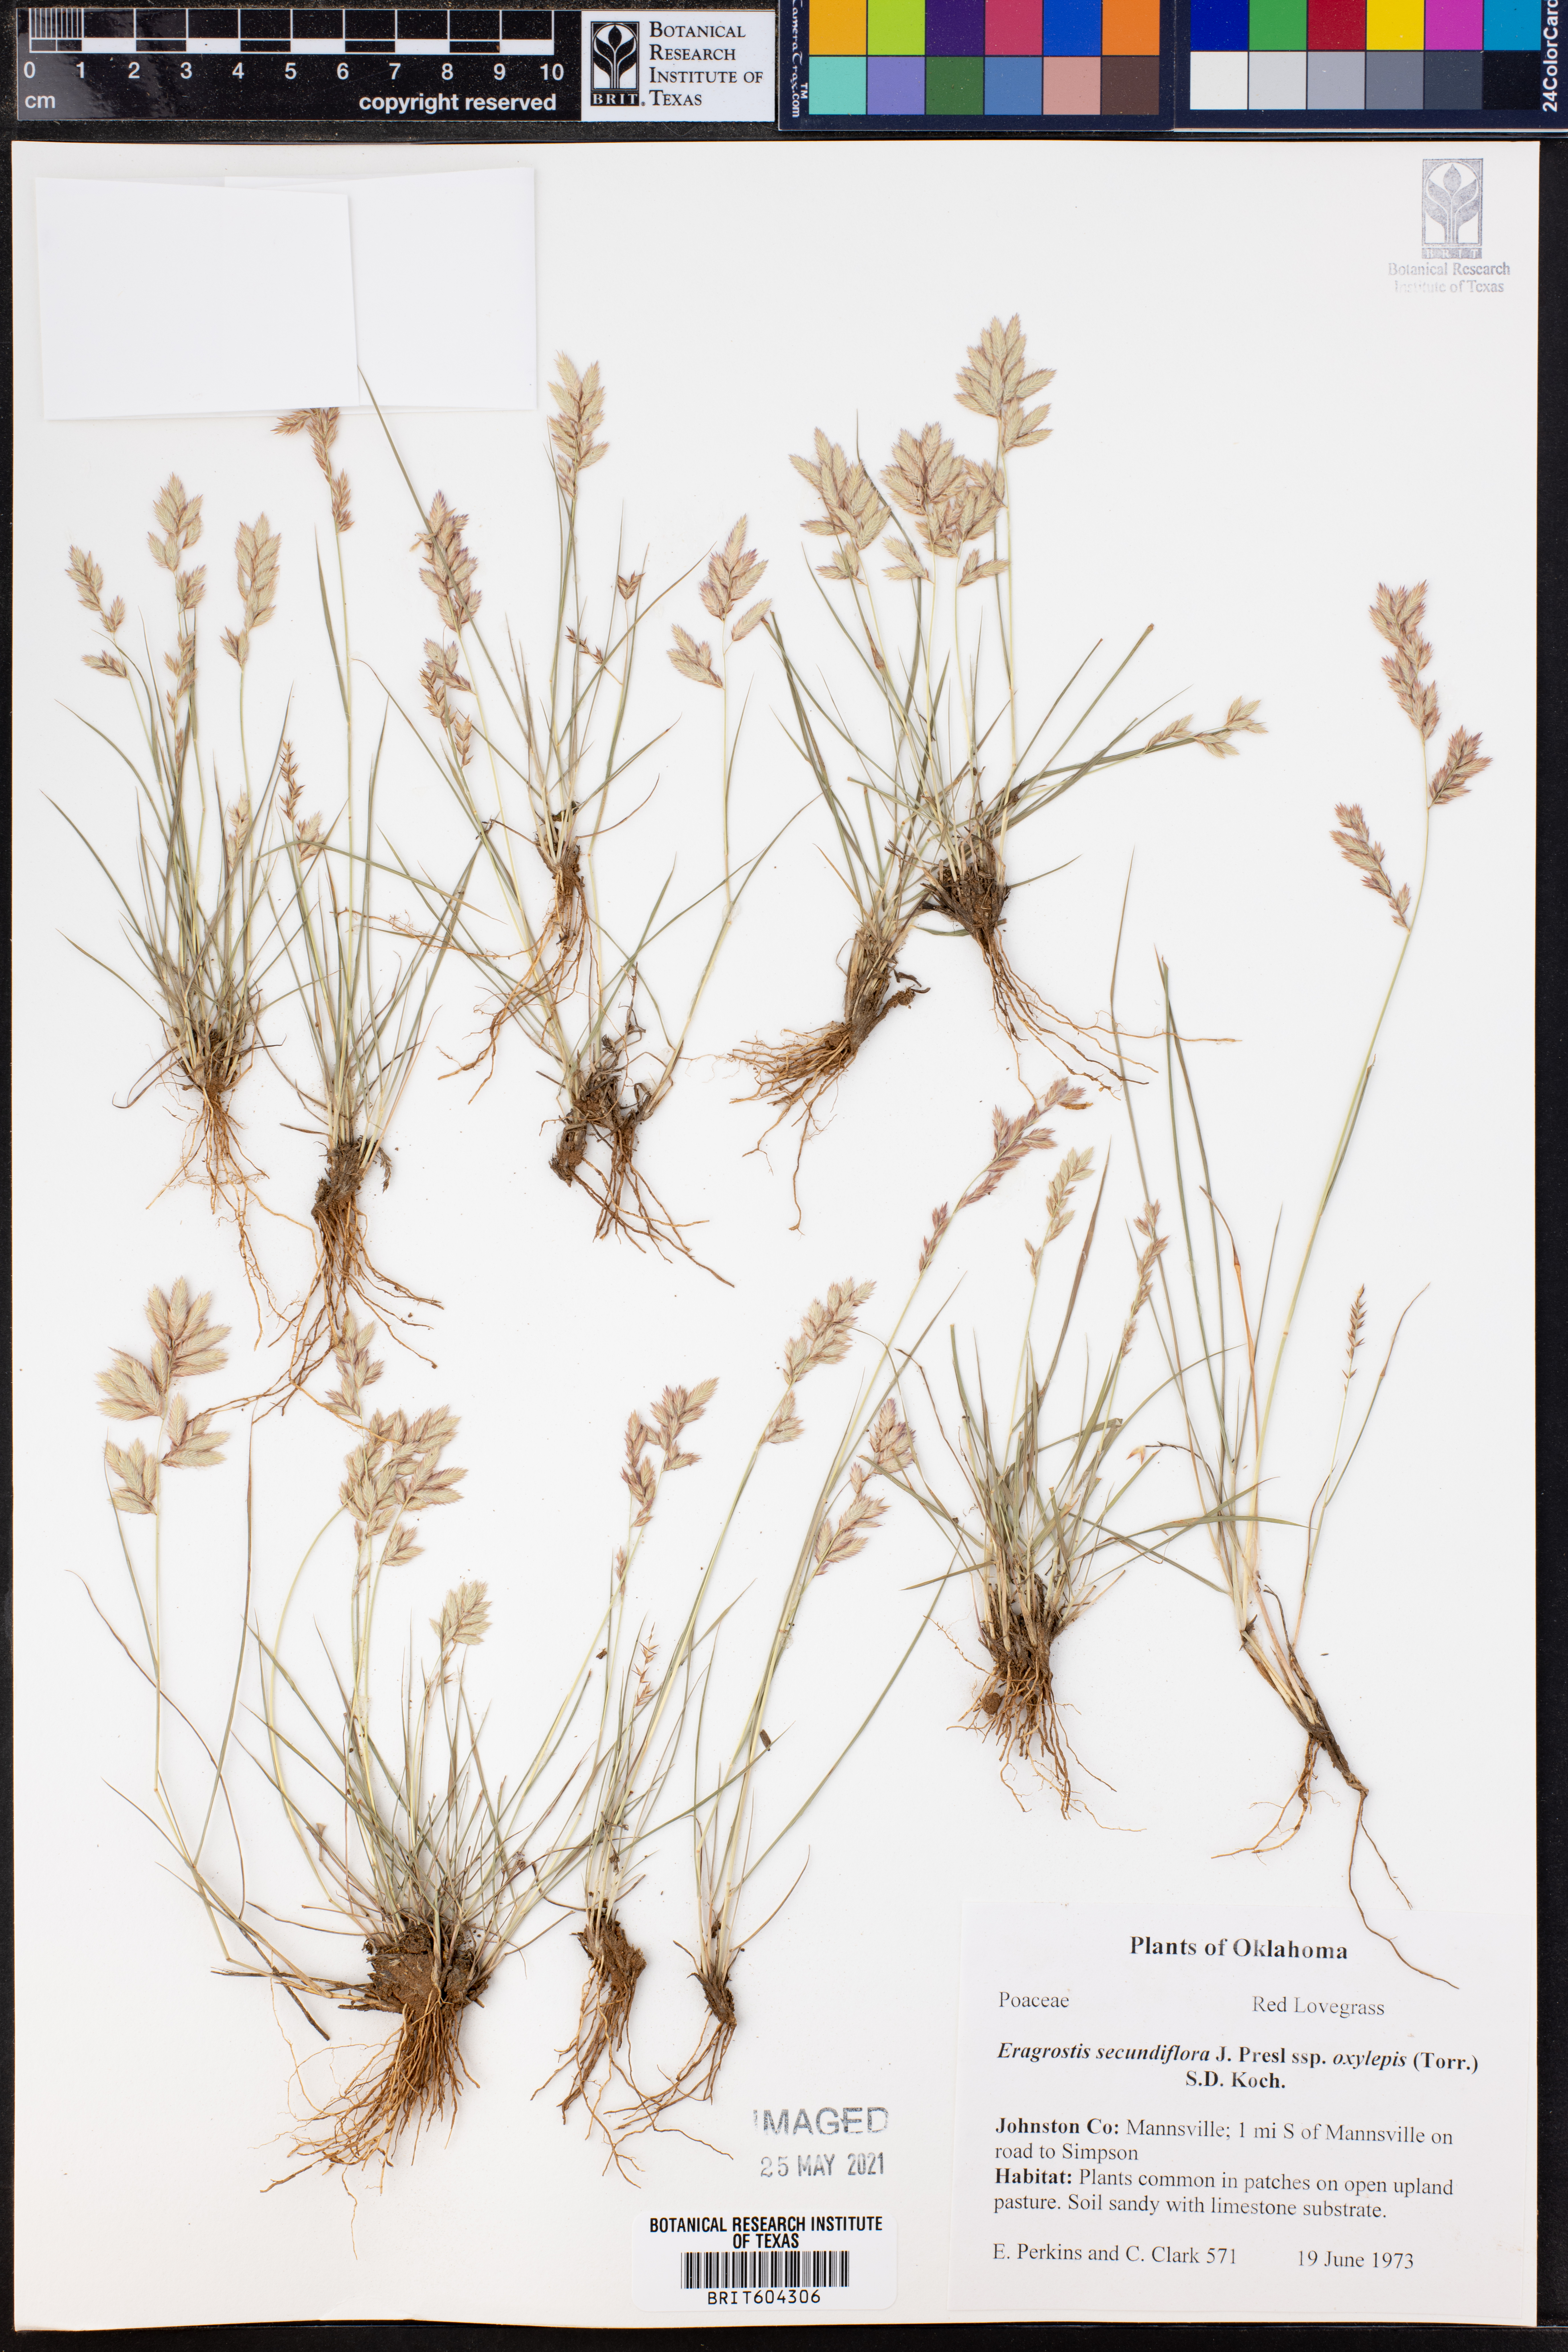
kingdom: Plantae
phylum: Tracheophyta
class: Liliopsida
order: Poales
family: Poaceae
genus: Eragrostis
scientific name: Eragrostis secundiflora
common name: Red love grass
